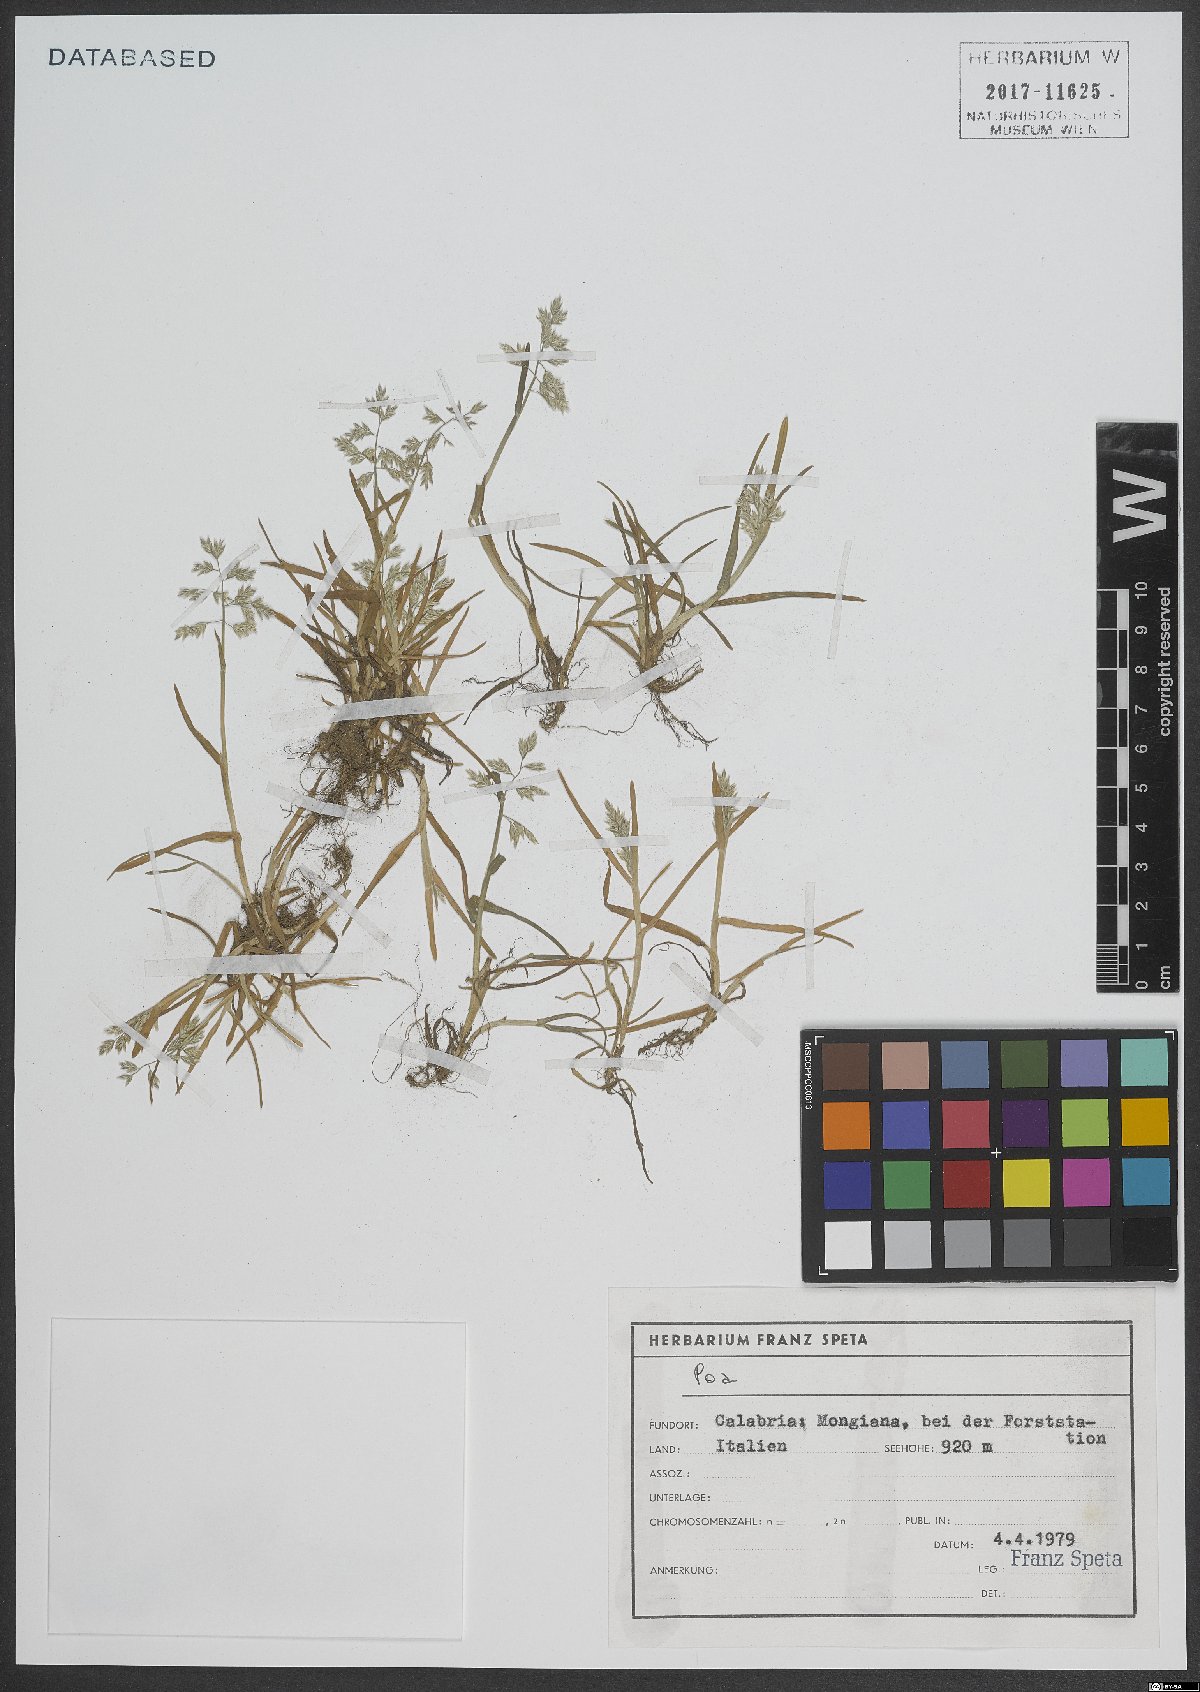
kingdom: Plantae
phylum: Tracheophyta
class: Liliopsida
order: Poales
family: Poaceae
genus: Poa
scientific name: Poa
